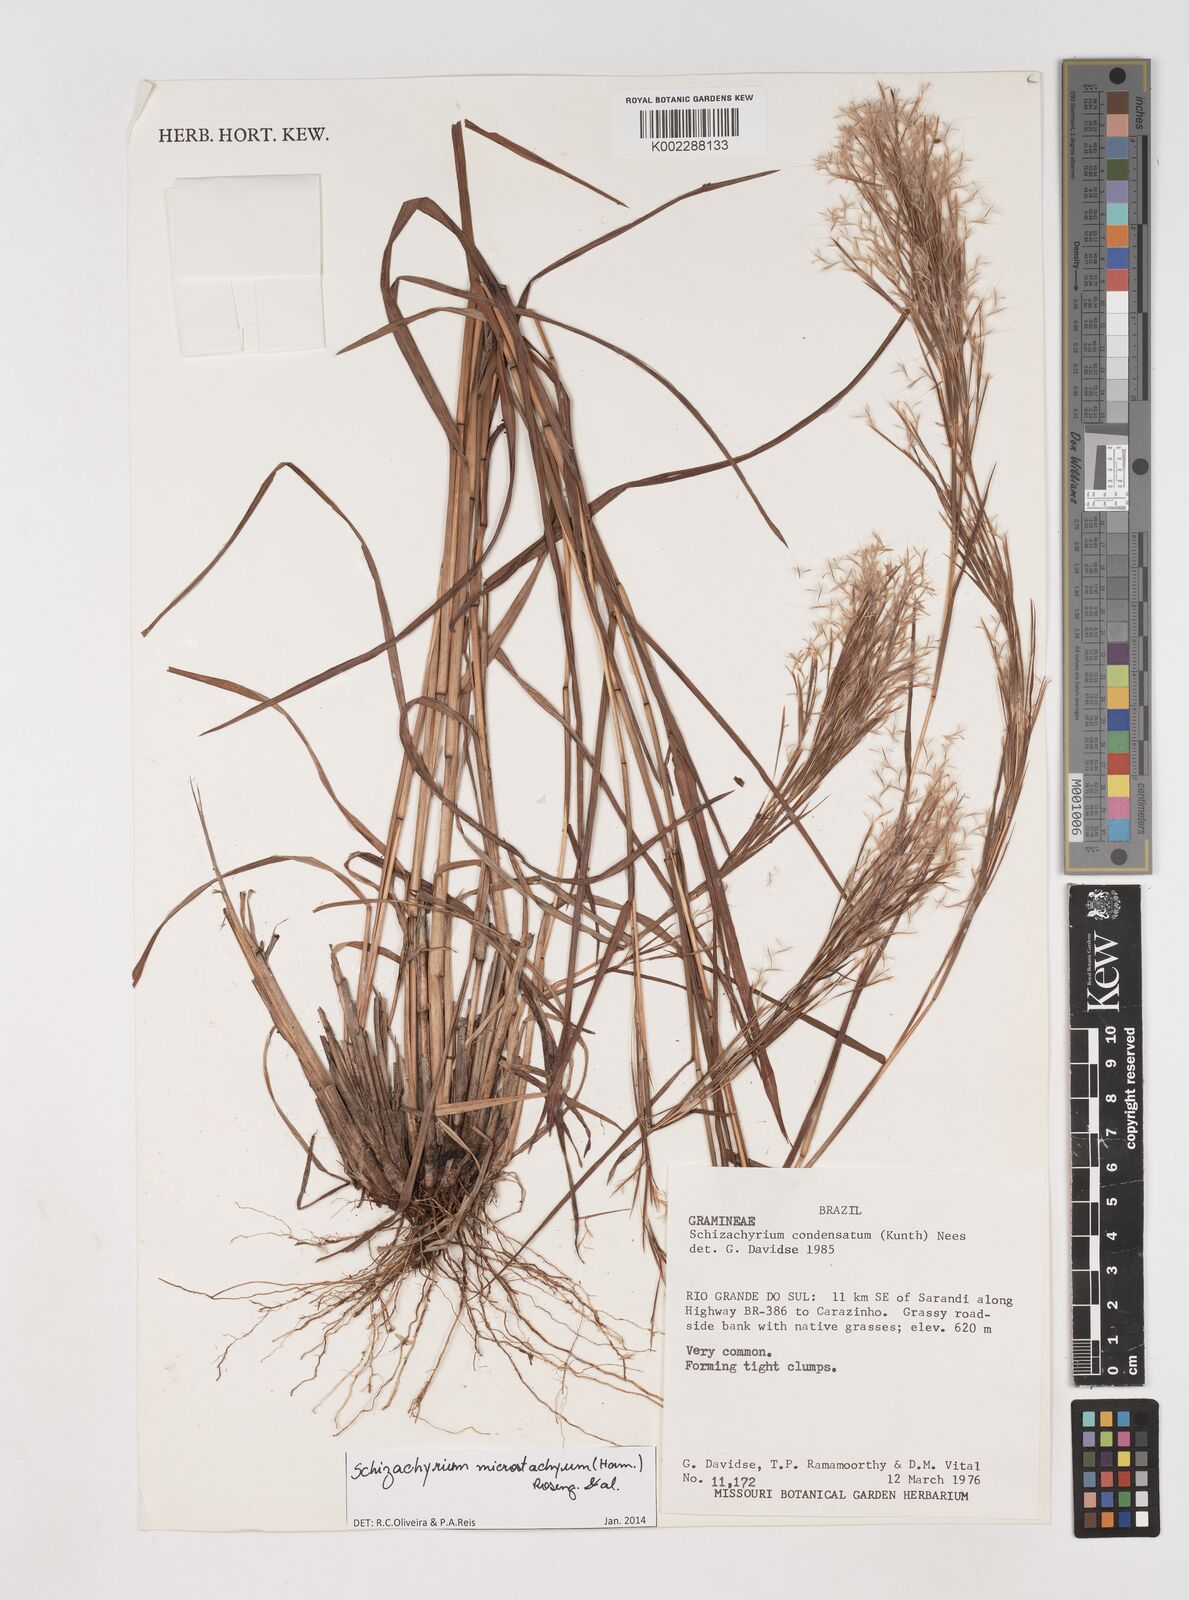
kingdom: Plantae
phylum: Tracheophyta
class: Liliopsida
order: Poales
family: Poaceae
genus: Schizachyrium
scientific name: Schizachyrium microstachyum
